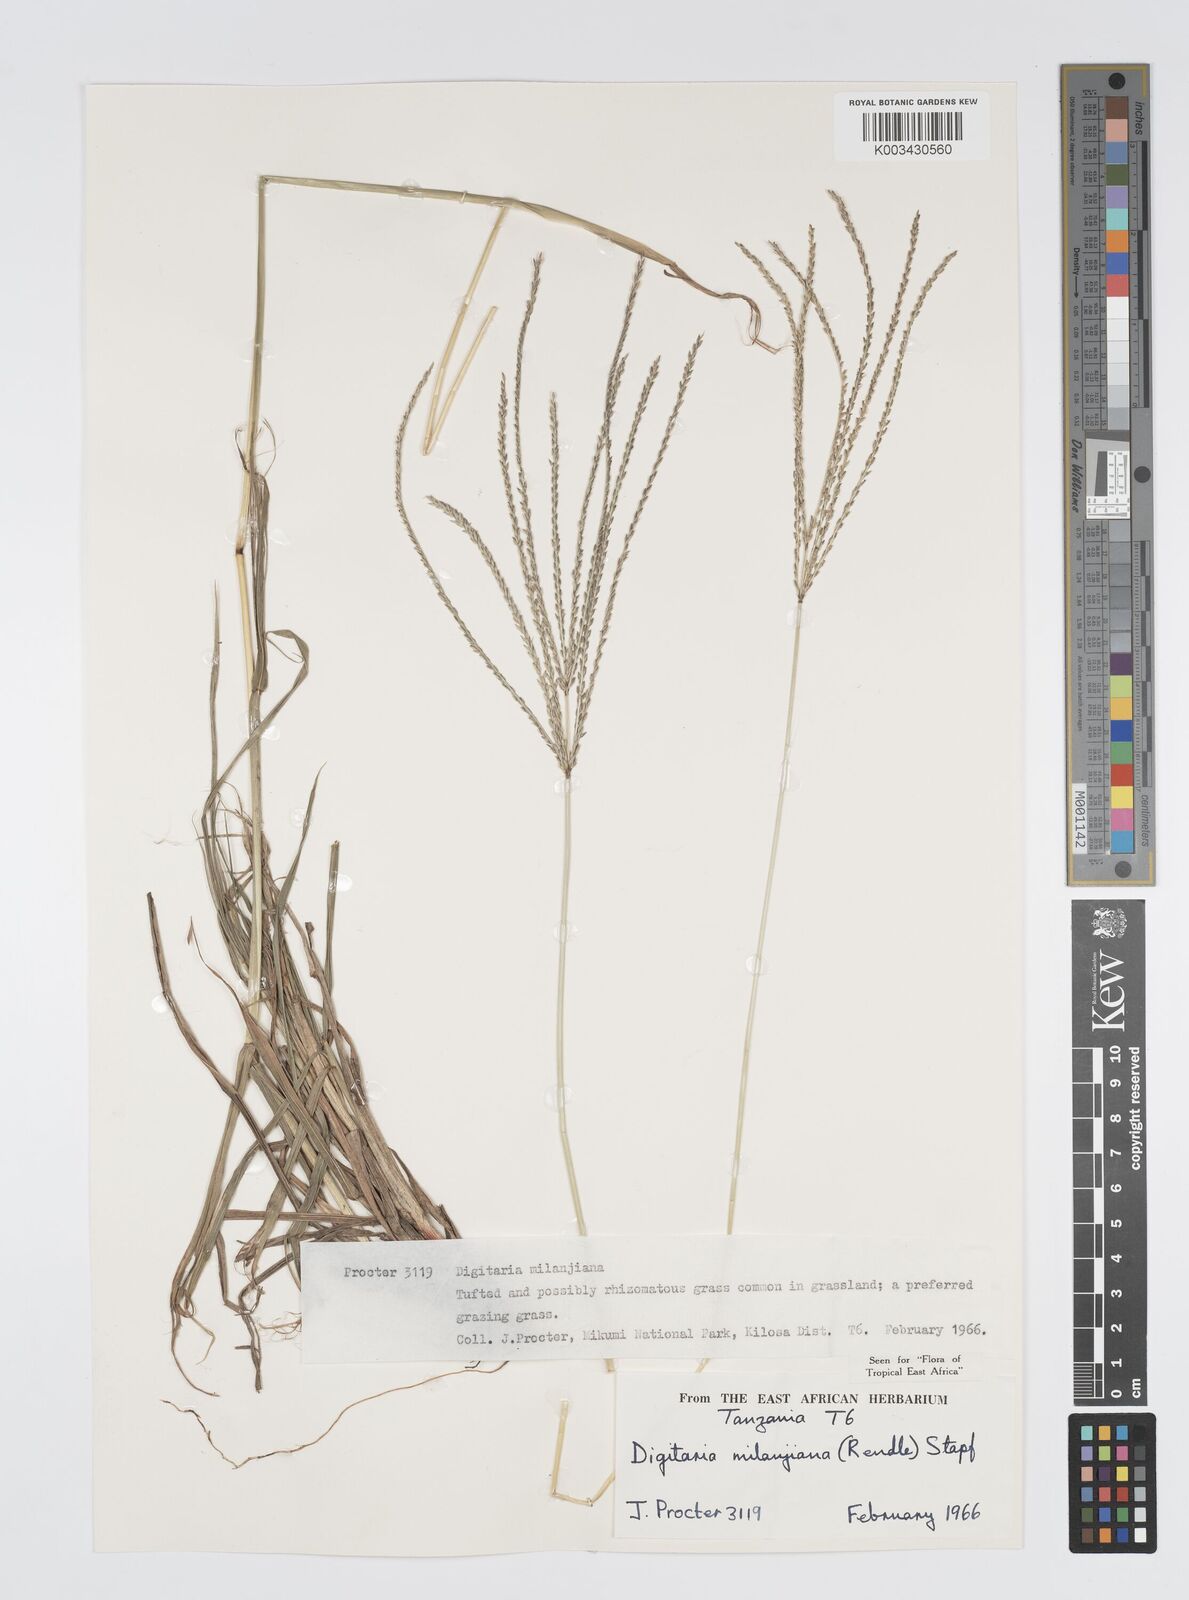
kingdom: Plantae
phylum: Tracheophyta
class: Liliopsida
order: Poales
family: Poaceae
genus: Digitaria
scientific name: Digitaria milanjiana
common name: Madagascar crabgrass
